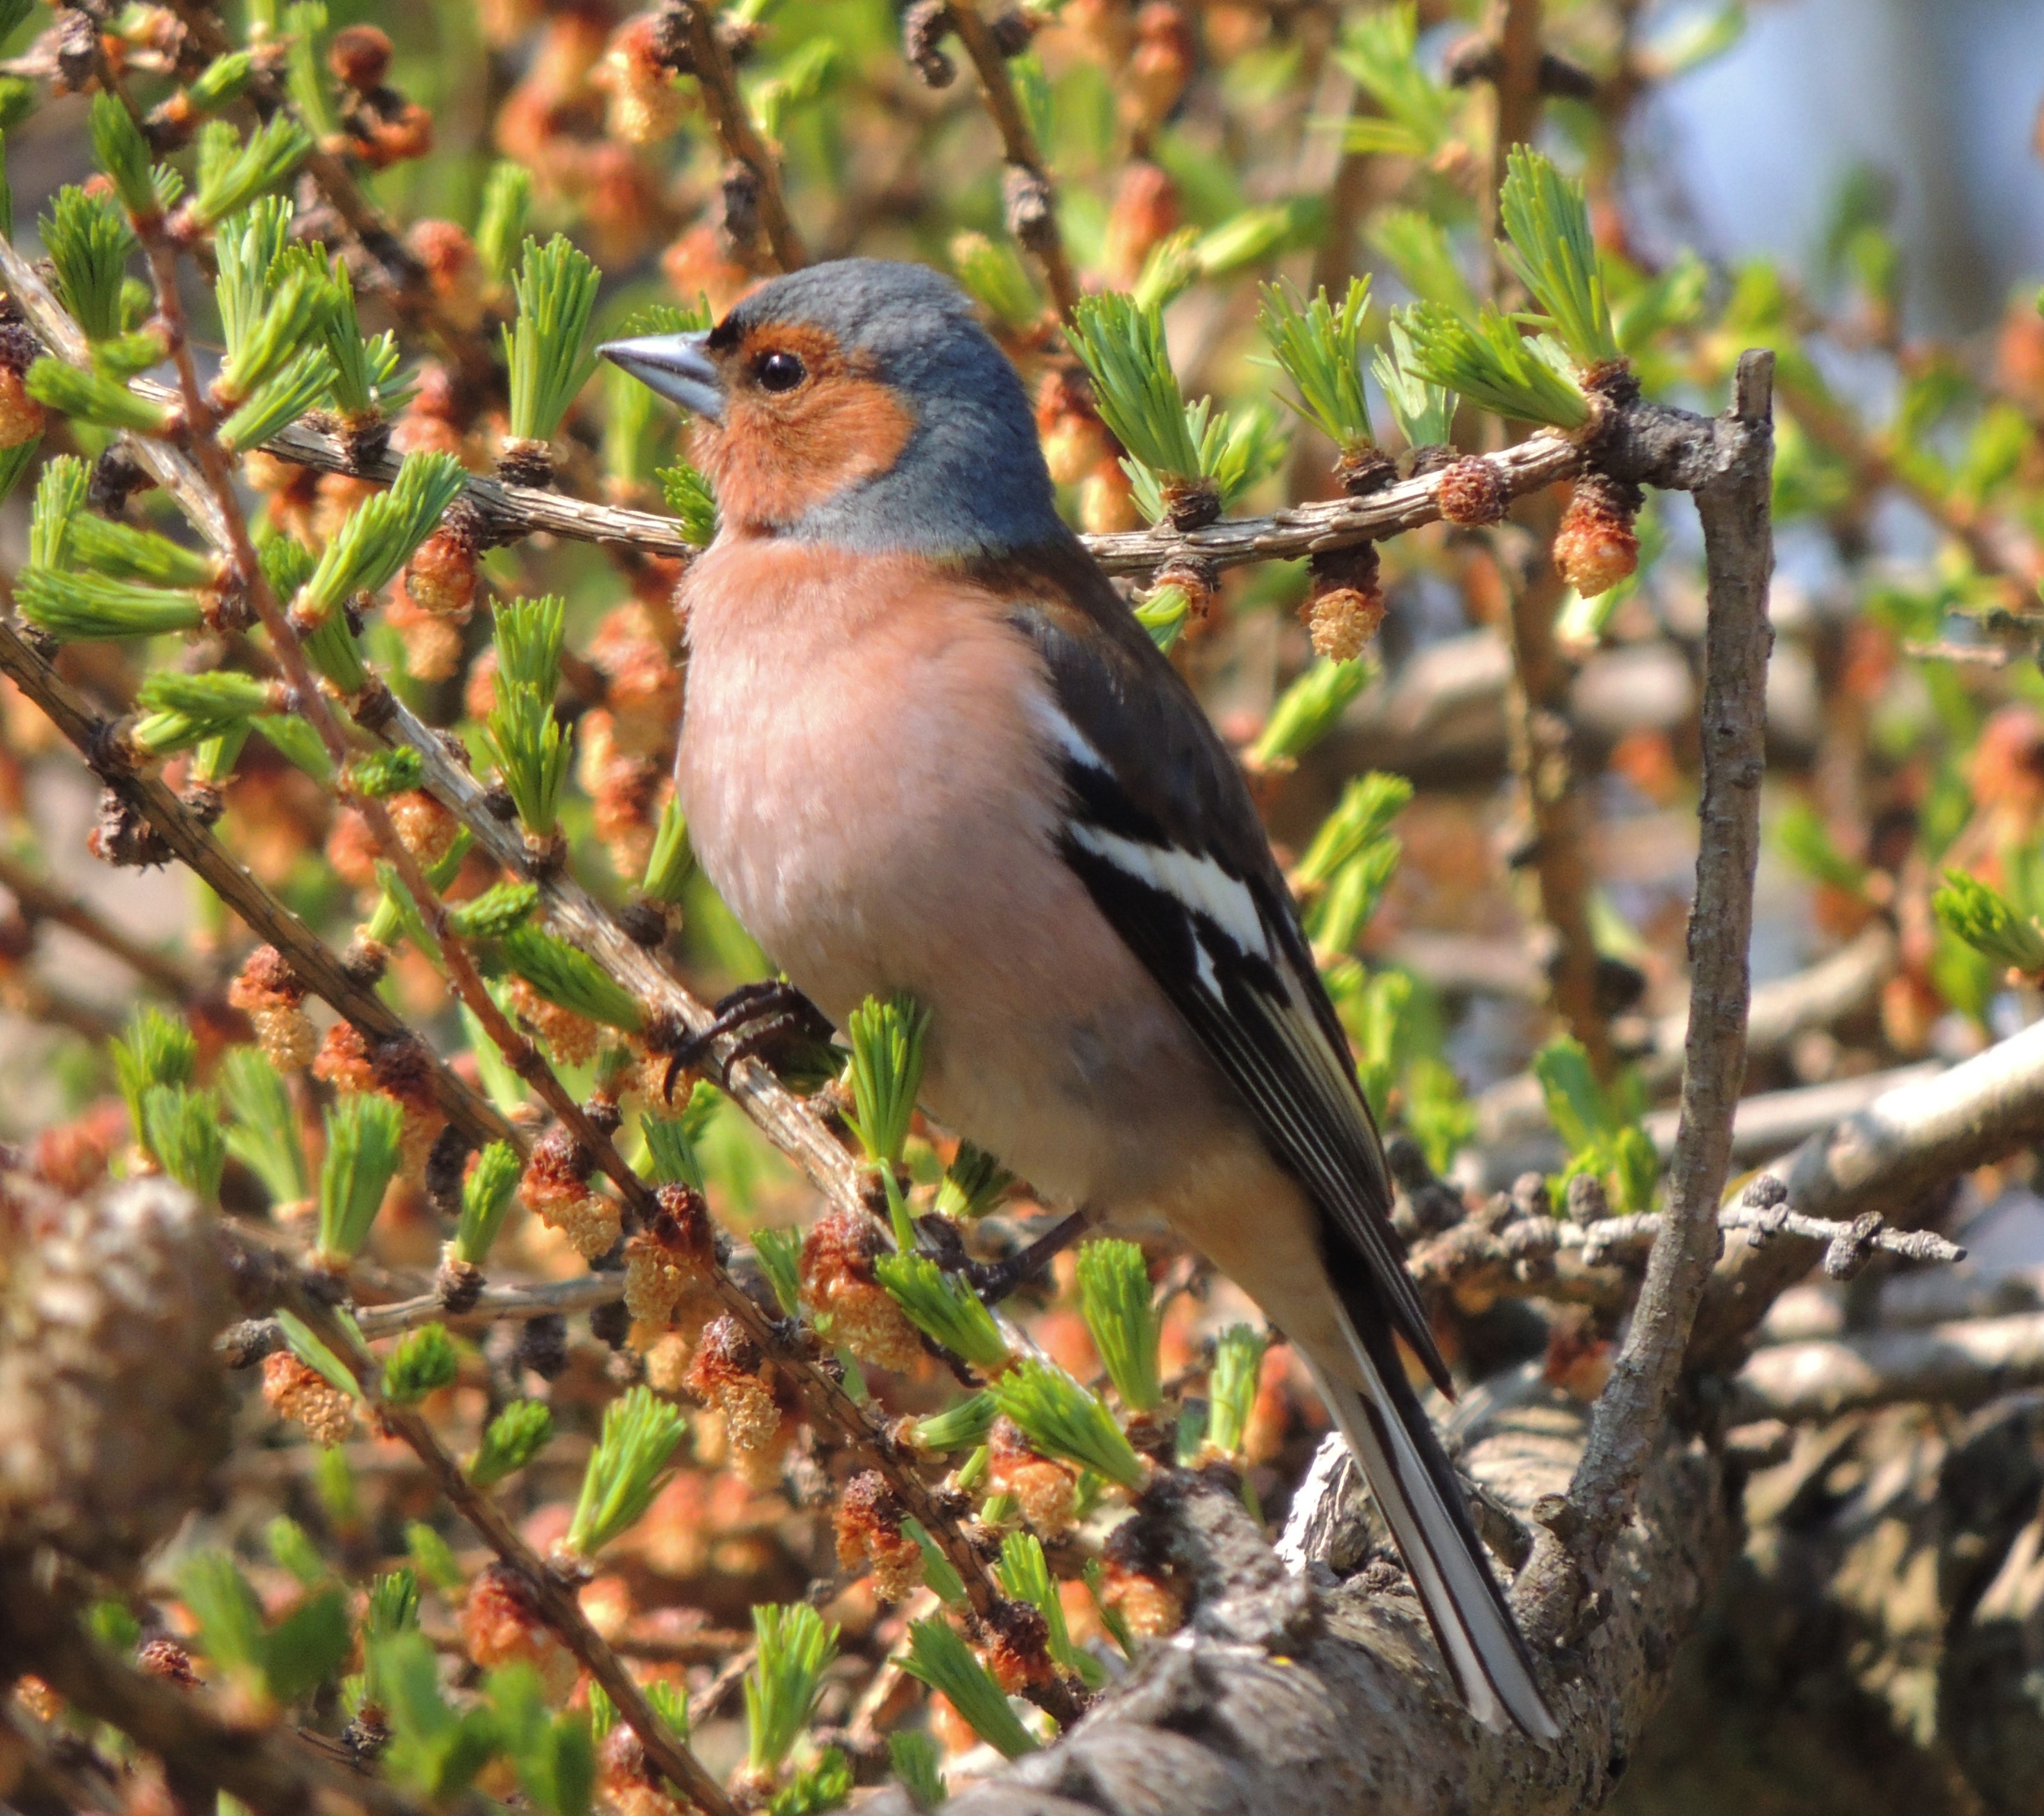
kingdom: Animalia
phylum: Chordata
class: Aves
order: Passeriformes
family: Fringillidae
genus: Fringilla
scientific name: Fringilla coelebs
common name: Bogfinke
